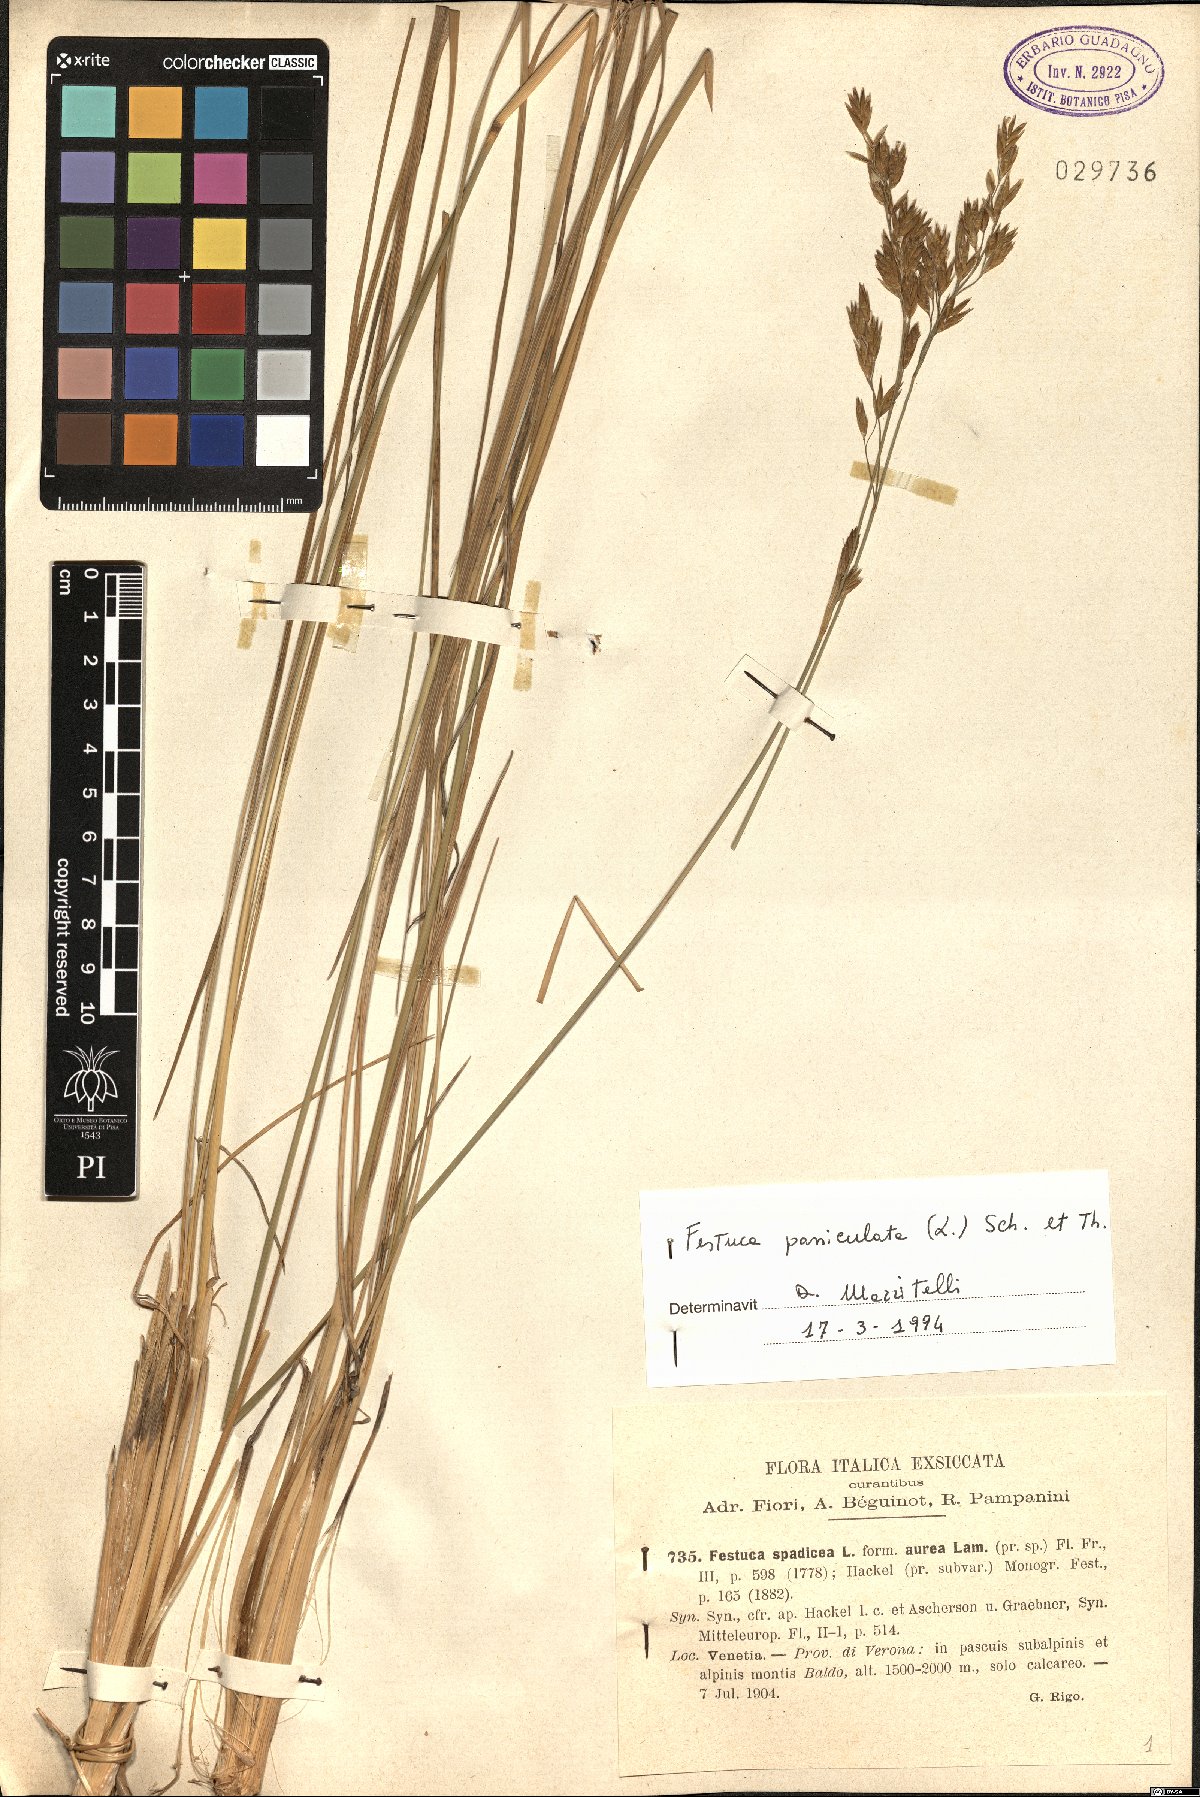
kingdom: Plantae
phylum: Tracheophyta
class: Liliopsida
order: Poales
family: Poaceae
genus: Patzkea
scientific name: Patzkea paniculata
